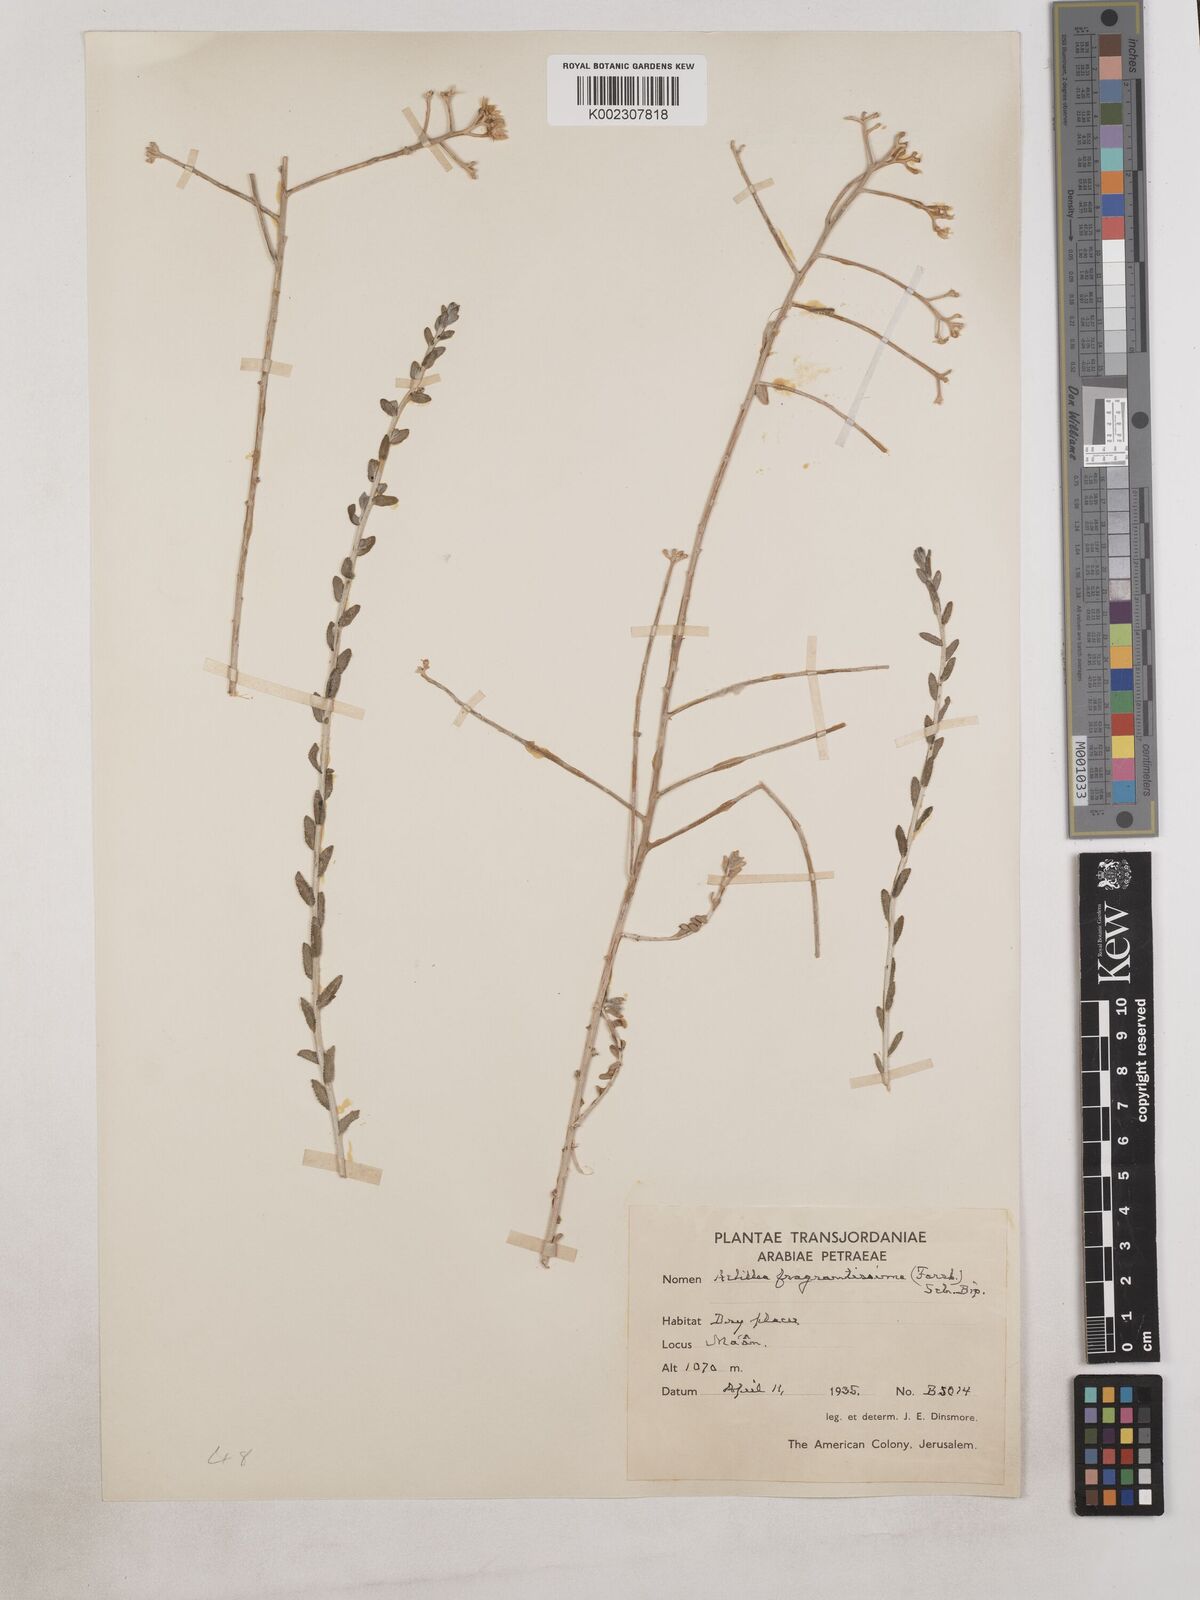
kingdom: Plantae
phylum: Tracheophyta
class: Magnoliopsida
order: Asterales
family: Asteraceae
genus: Achillea
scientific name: Achillea fragrantissima
